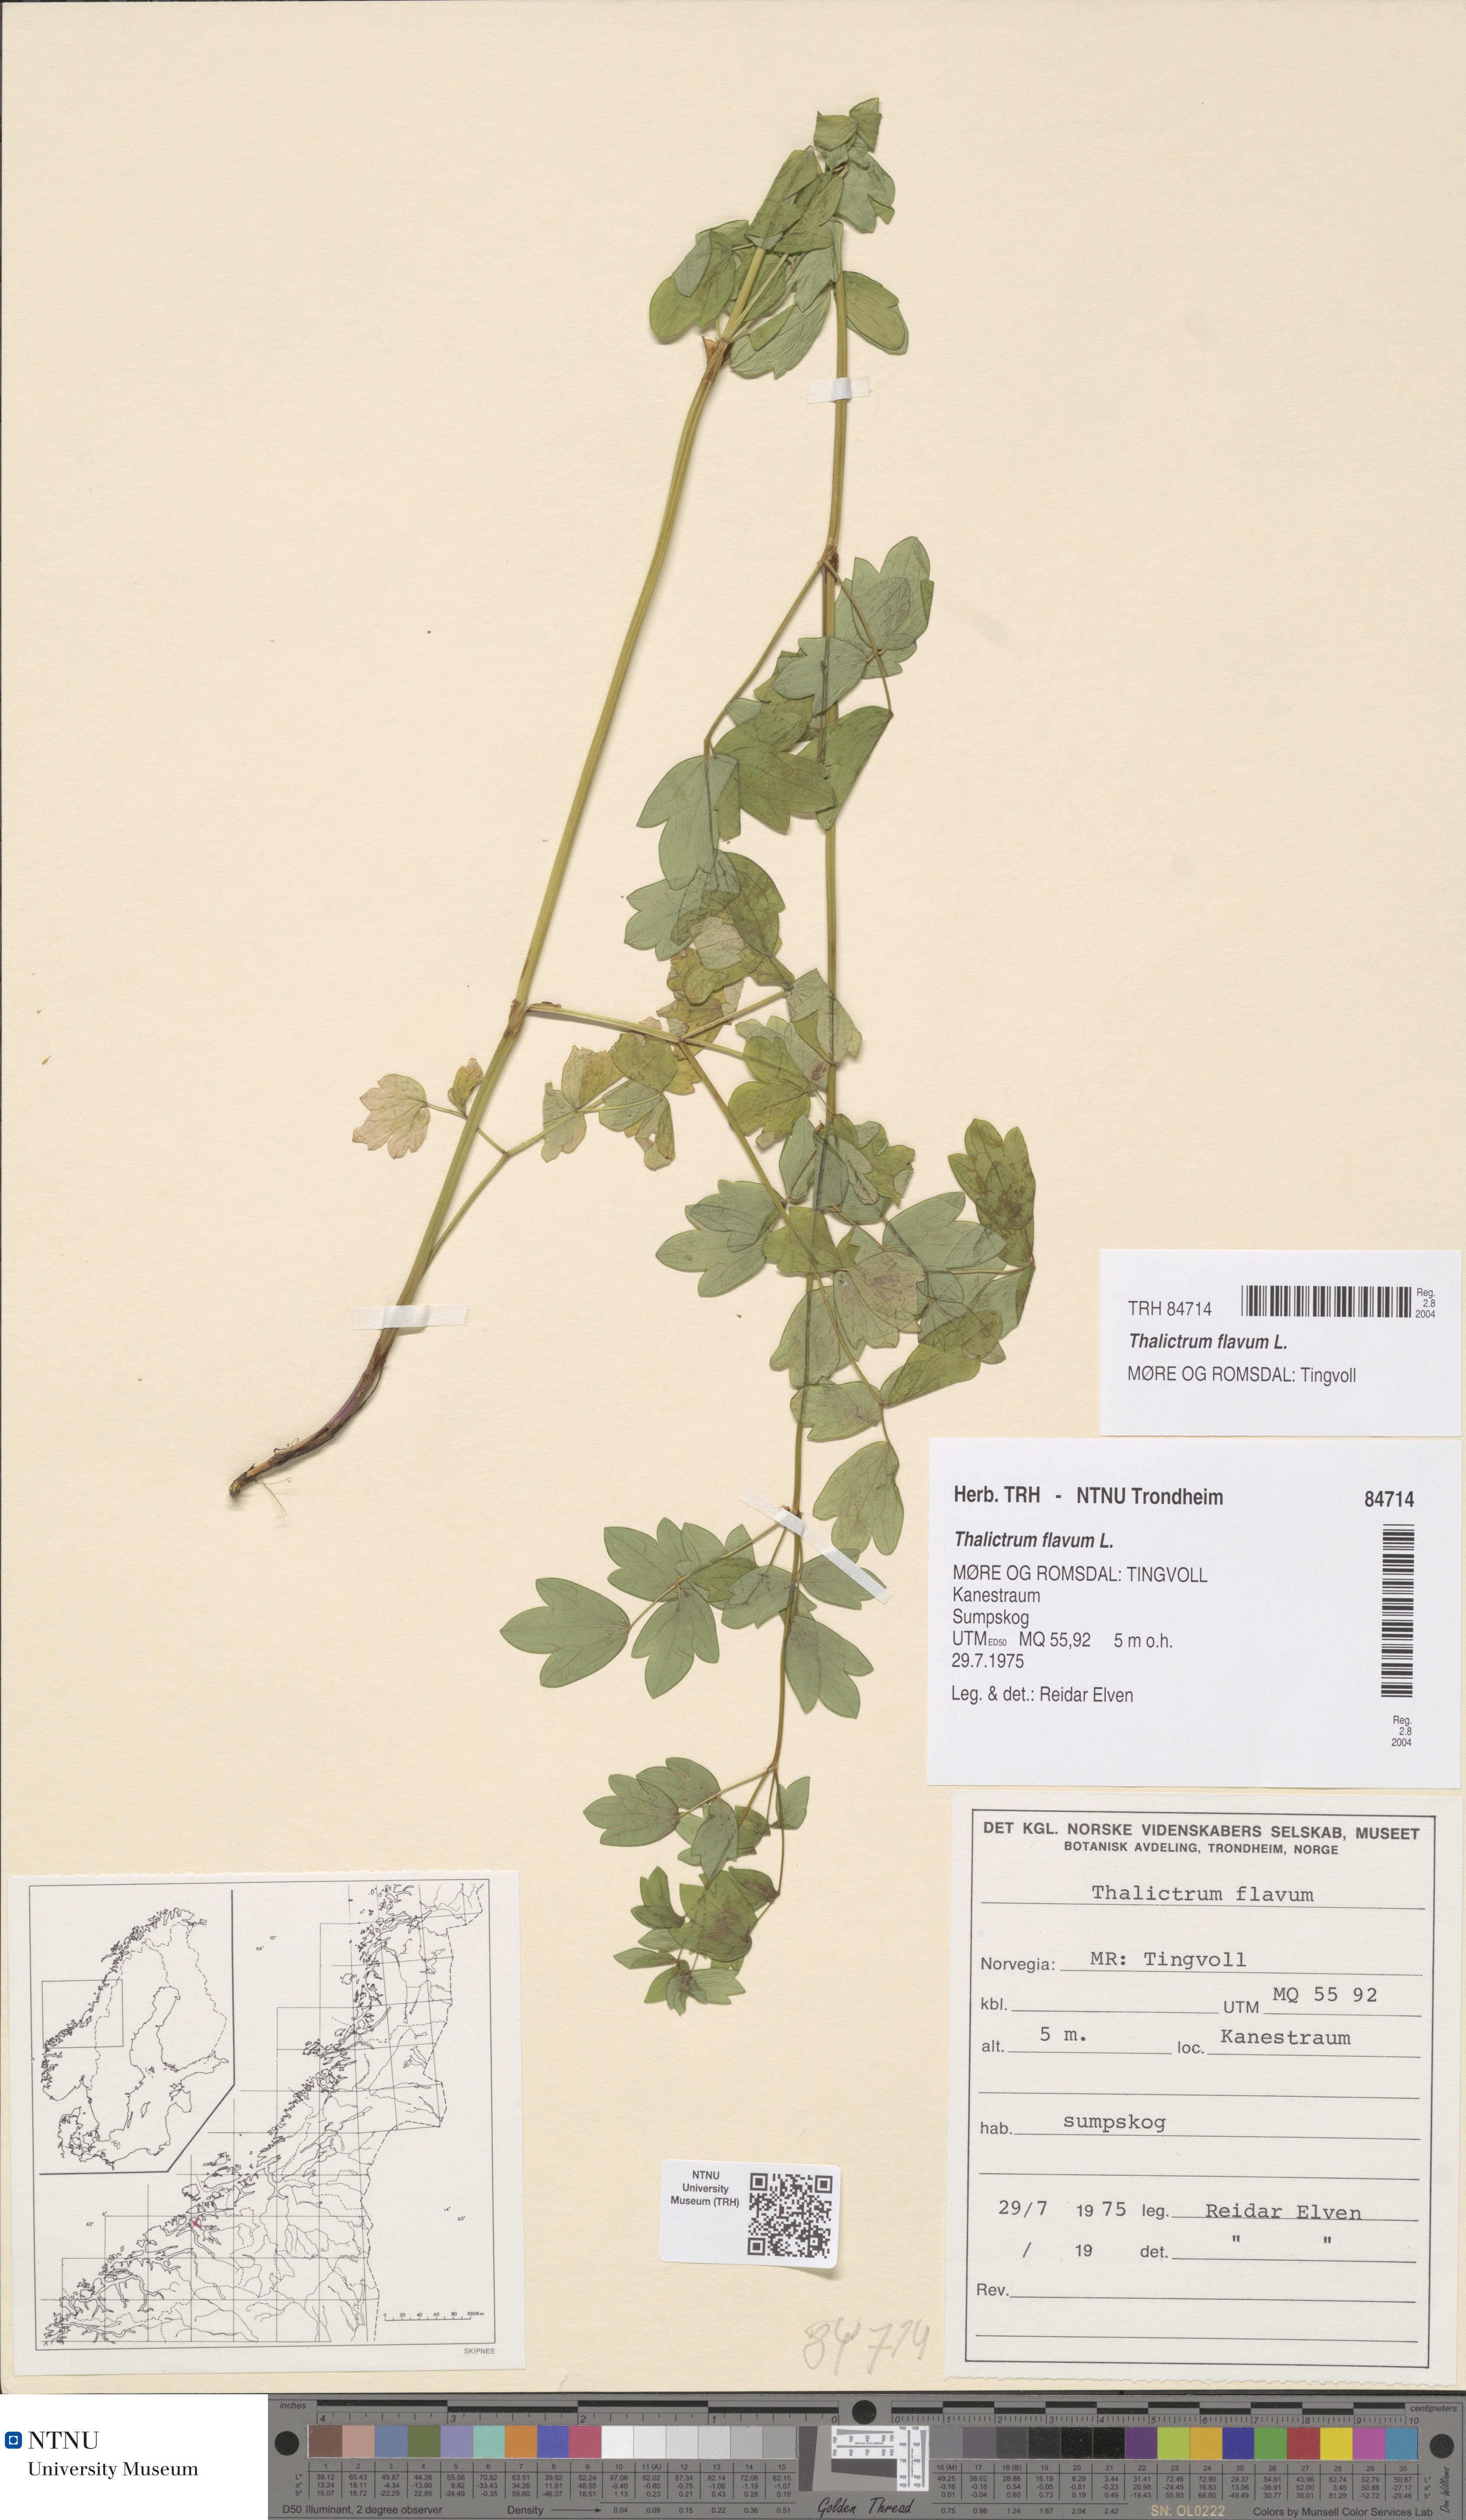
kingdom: Plantae
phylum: Tracheophyta
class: Magnoliopsida
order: Ranunculales
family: Ranunculaceae
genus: Thalictrum
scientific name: Thalictrum flavum
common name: Common meadow-rue
